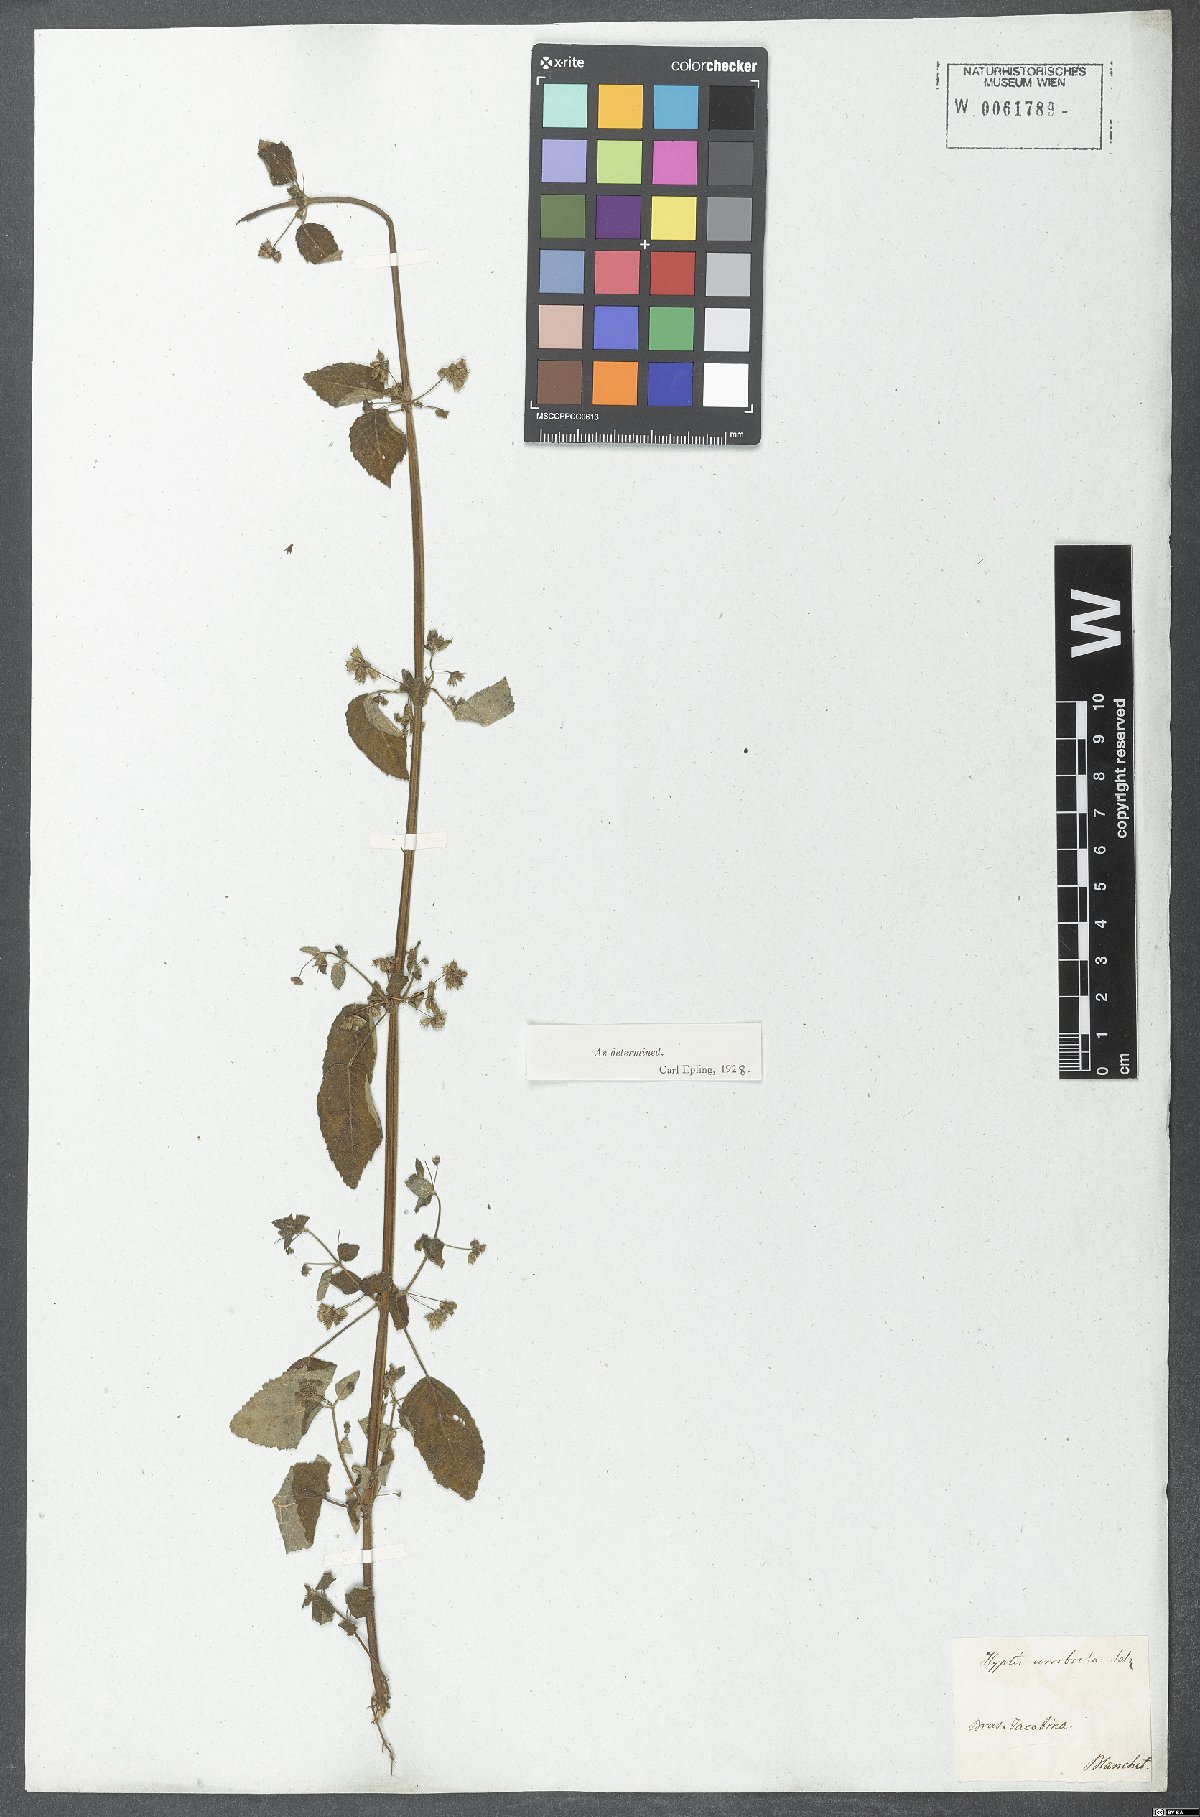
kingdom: Plantae
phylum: Tracheophyta
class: Magnoliopsida
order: Lamiales
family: Lamiaceae
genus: Mesosphaerum
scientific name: Mesosphaerum sidifolium
